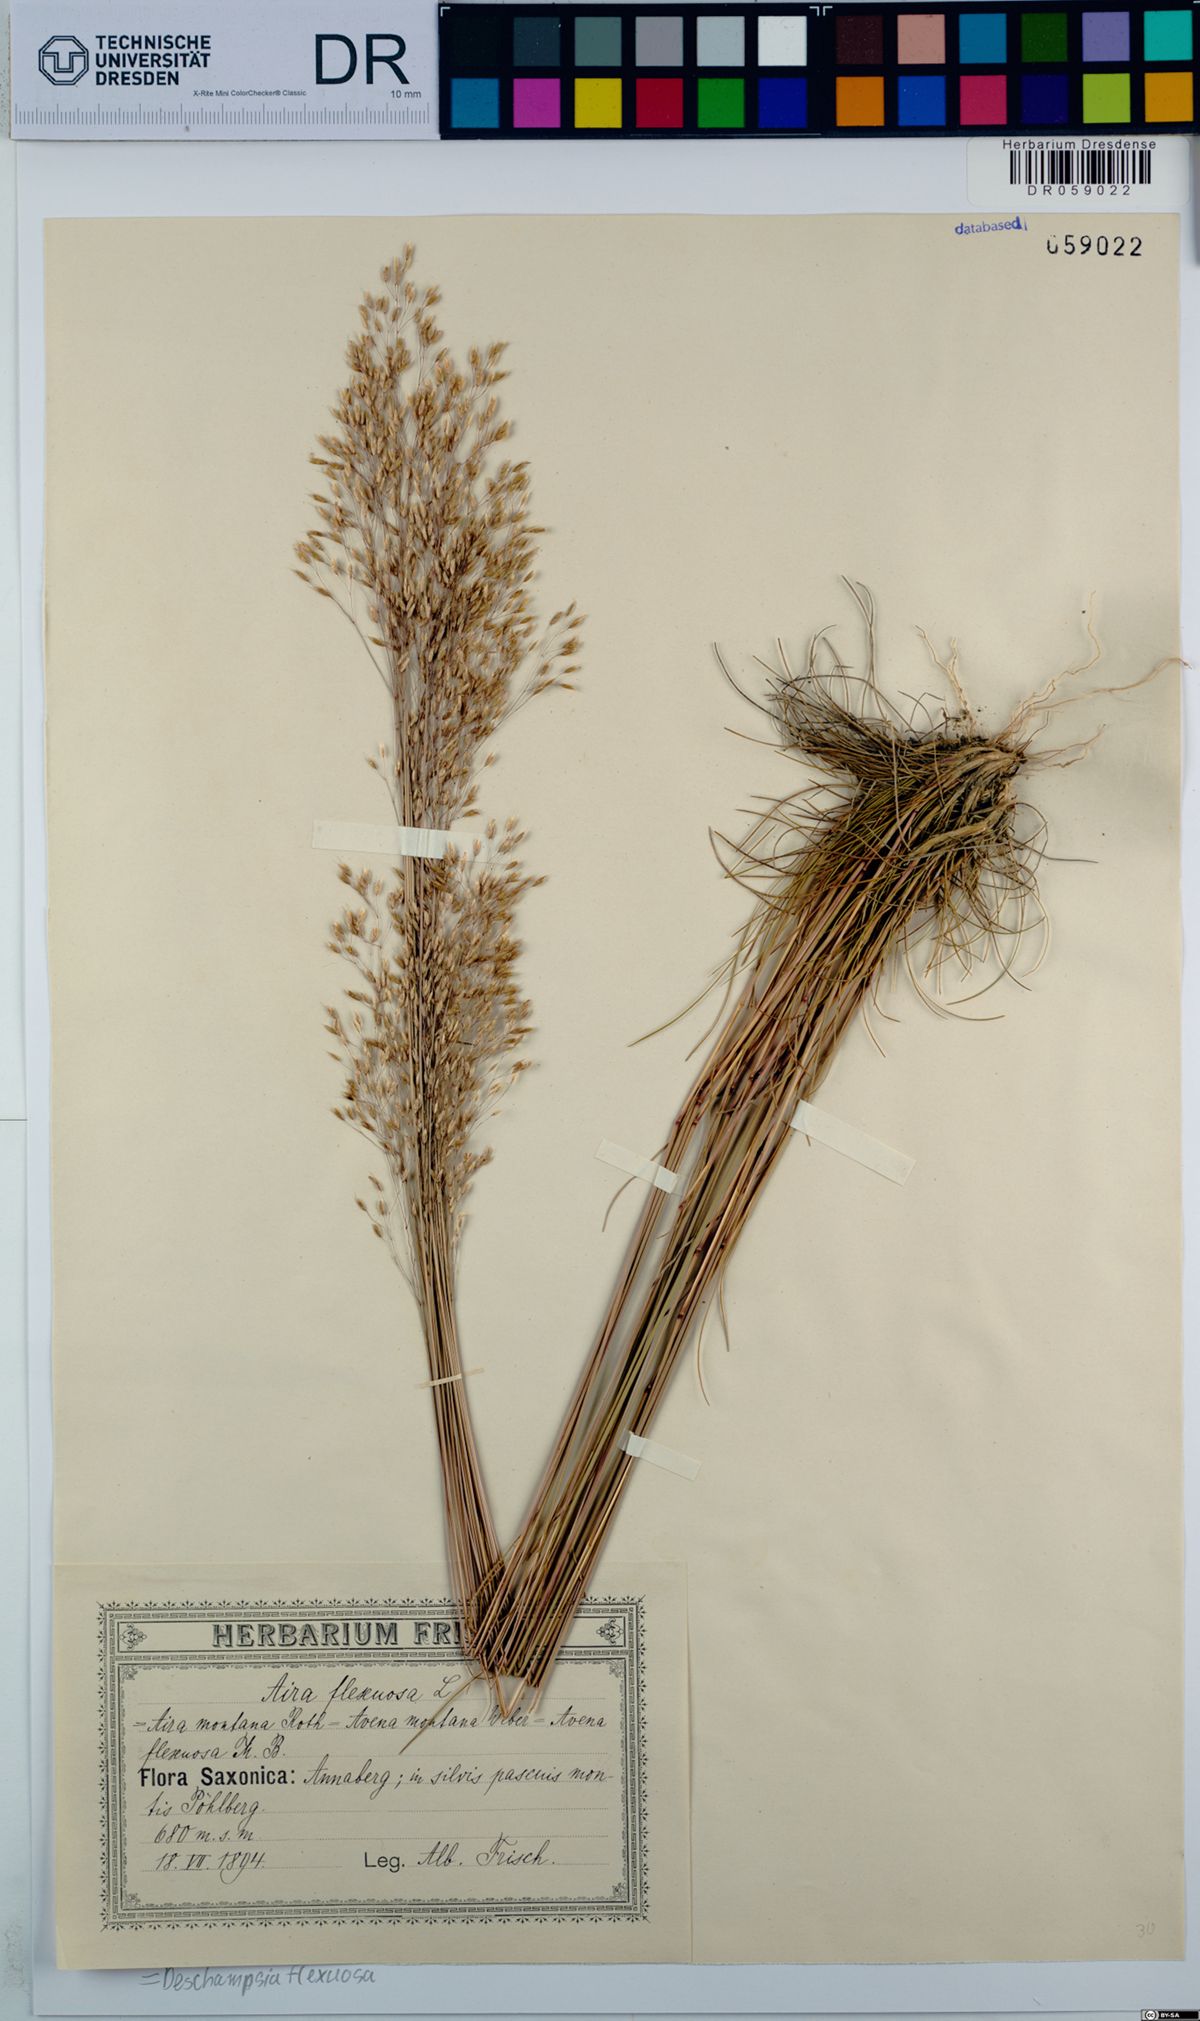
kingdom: Plantae
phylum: Tracheophyta
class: Liliopsida
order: Poales
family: Poaceae
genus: Avenella
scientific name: Avenella flexuosa
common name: Wavy hairgrass
